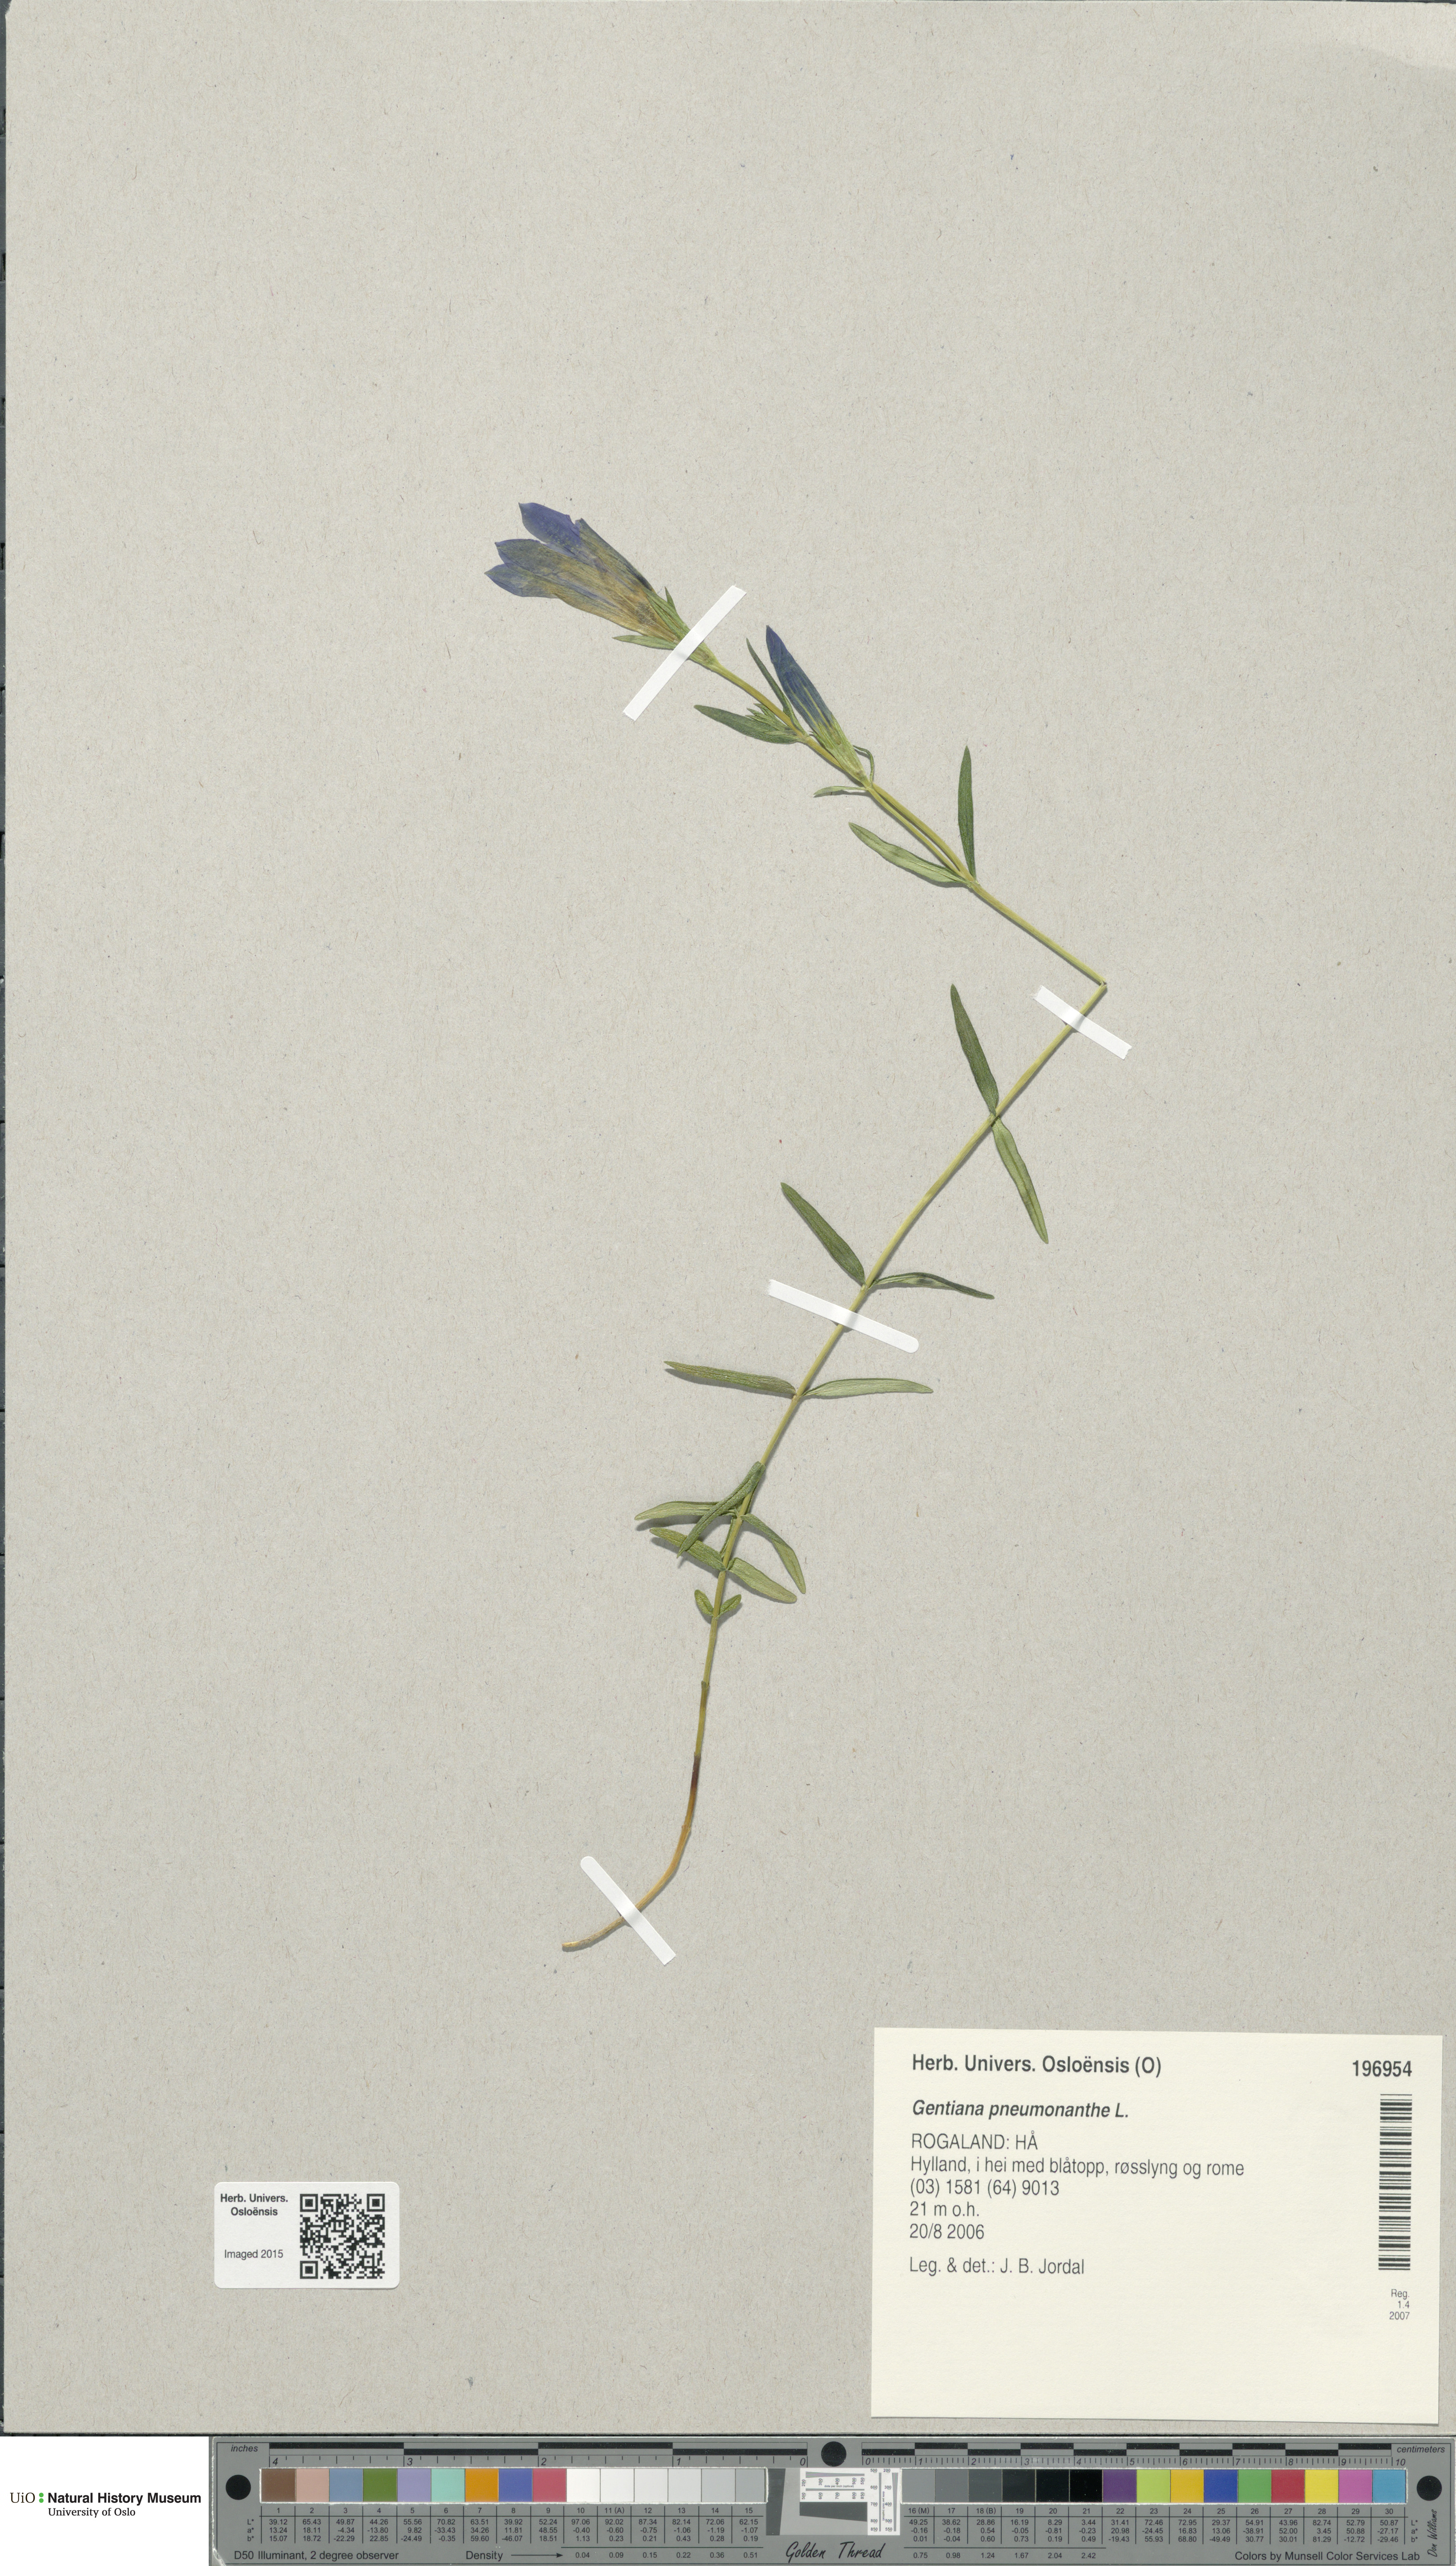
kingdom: Plantae
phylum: Tracheophyta
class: Magnoliopsida
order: Gentianales
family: Gentianaceae
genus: Gentiana
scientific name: Gentiana pneumonanthe
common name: Marsh gentian
